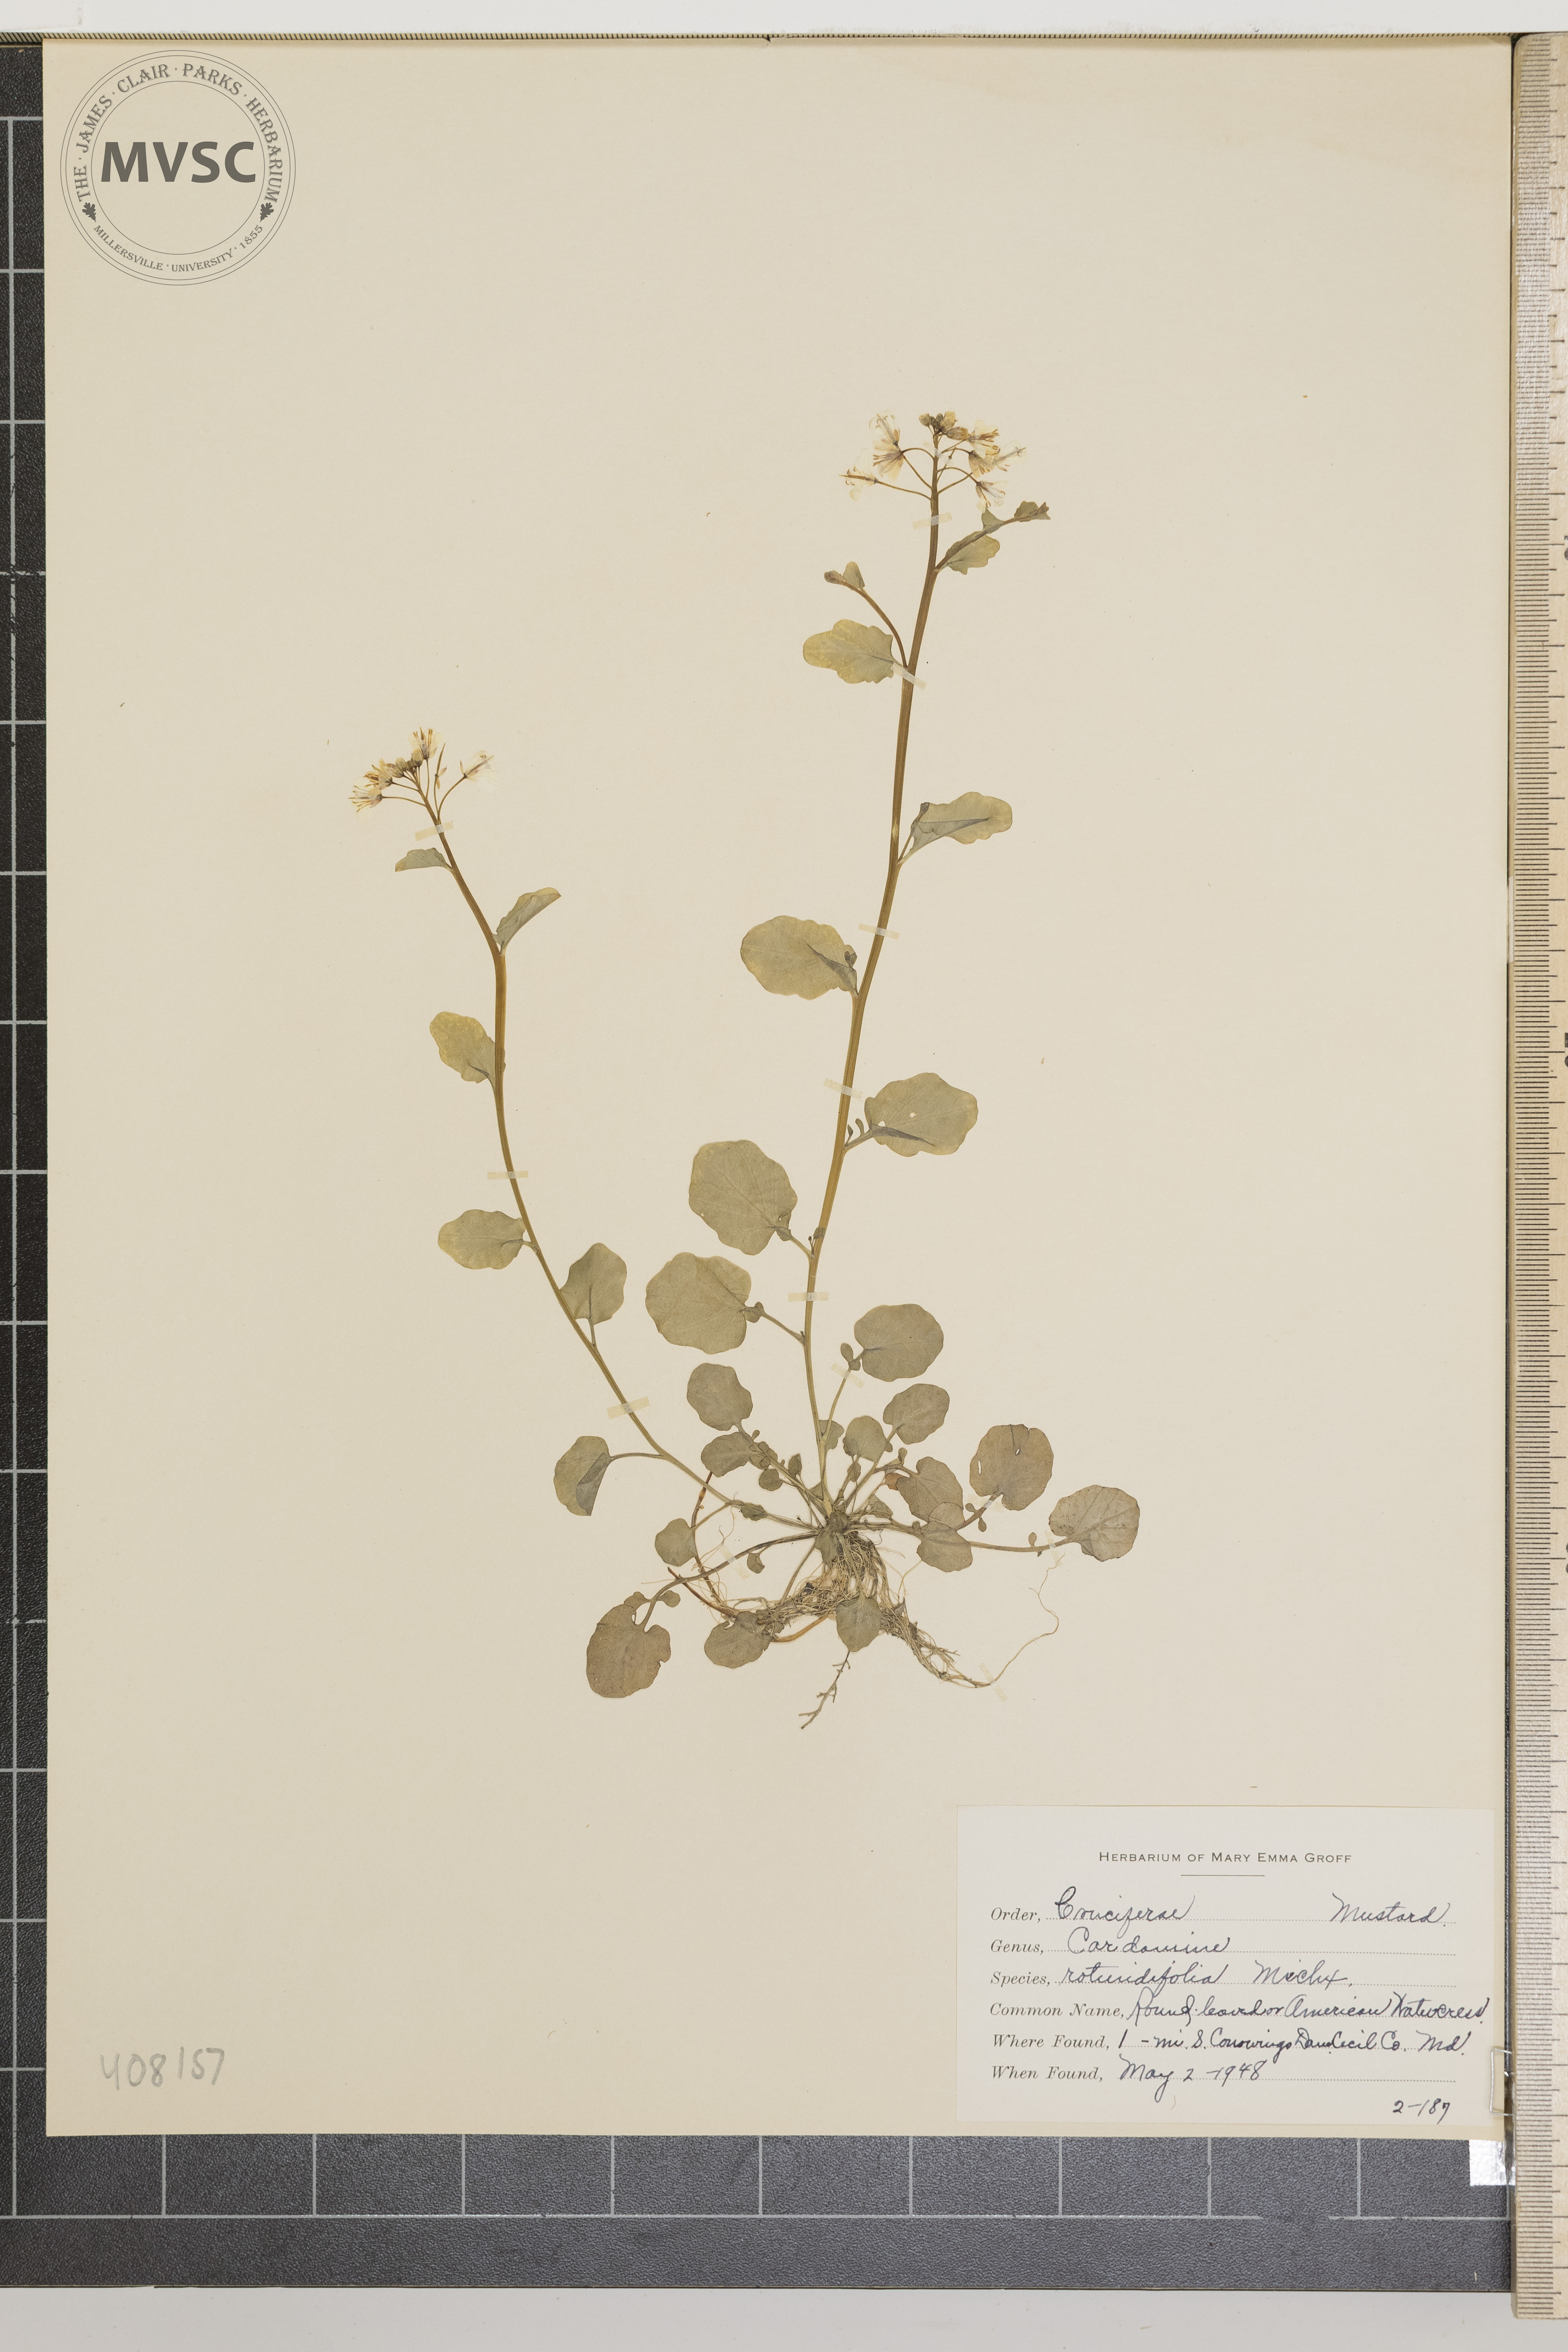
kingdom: Plantae
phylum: Tracheophyta
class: Magnoliopsida
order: Brassicales
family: Brassicaceae
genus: Cardamine
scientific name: Cardamine rotundifolia
